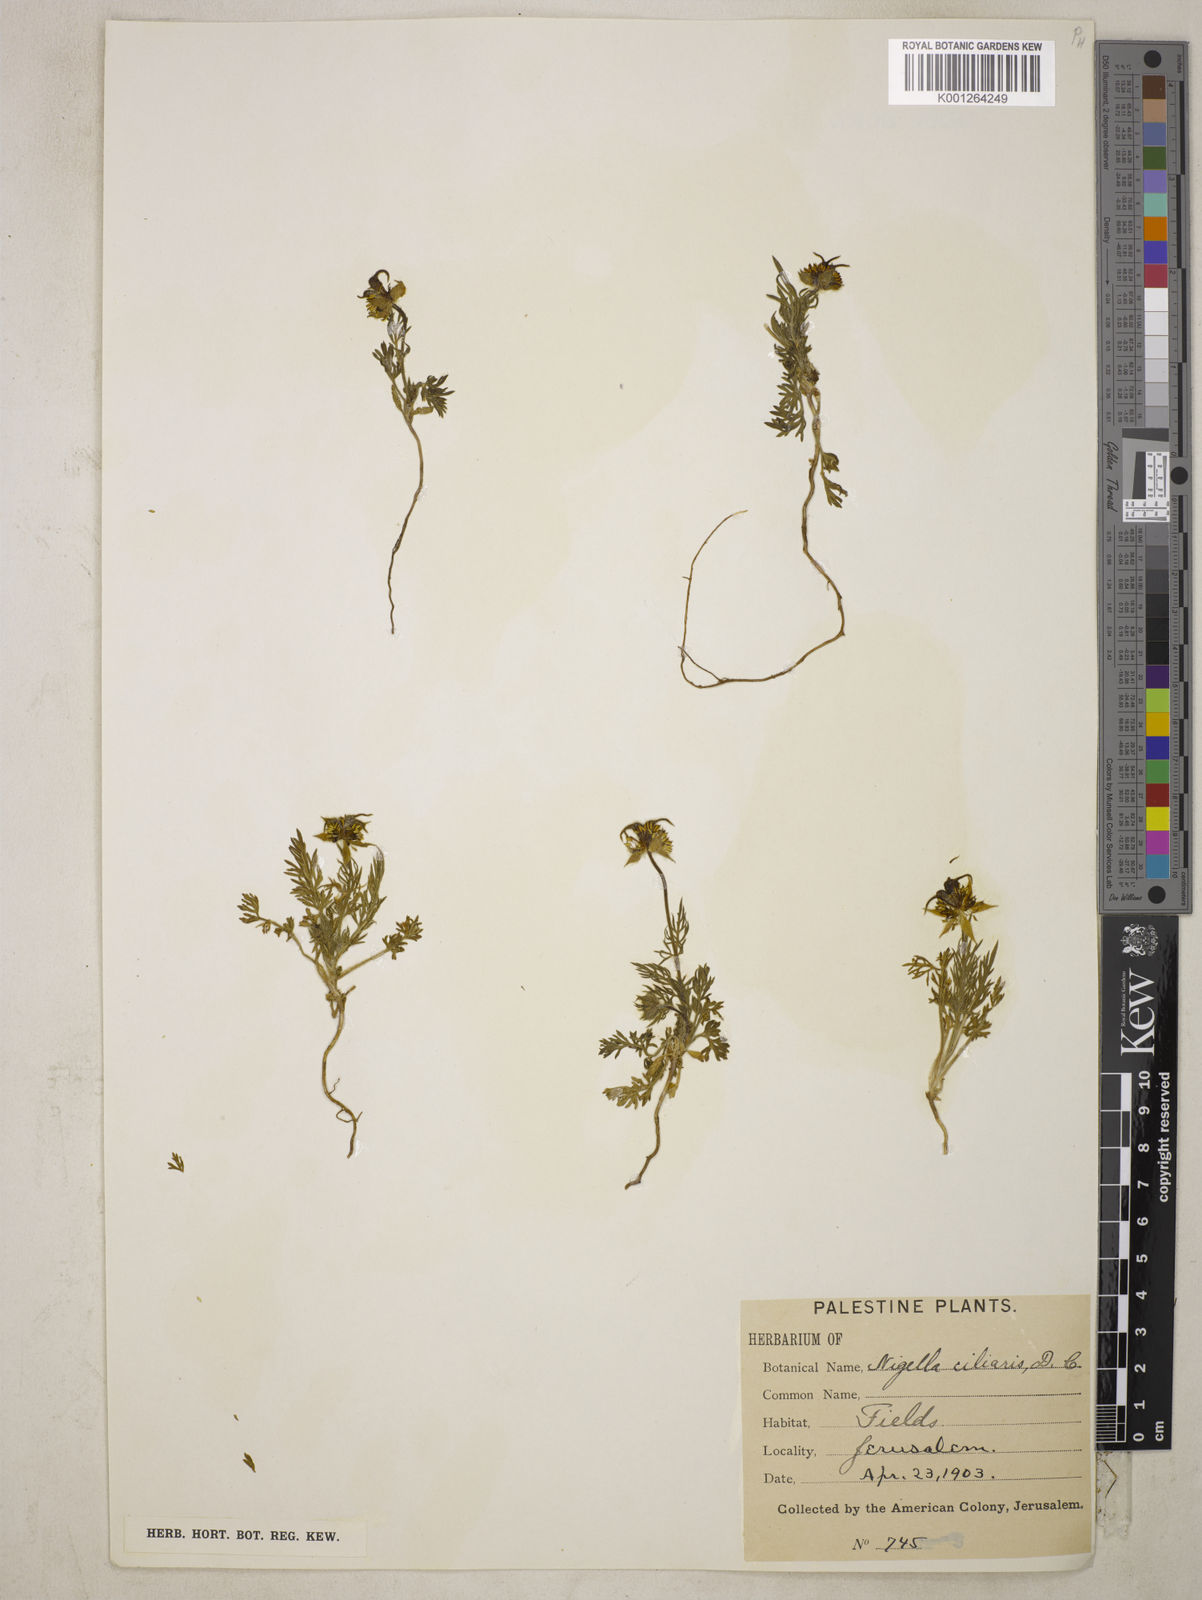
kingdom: Plantae
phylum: Tracheophyta
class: Magnoliopsida
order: Ranunculales
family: Ranunculaceae
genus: Nigella
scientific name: Nigella ciliaris
